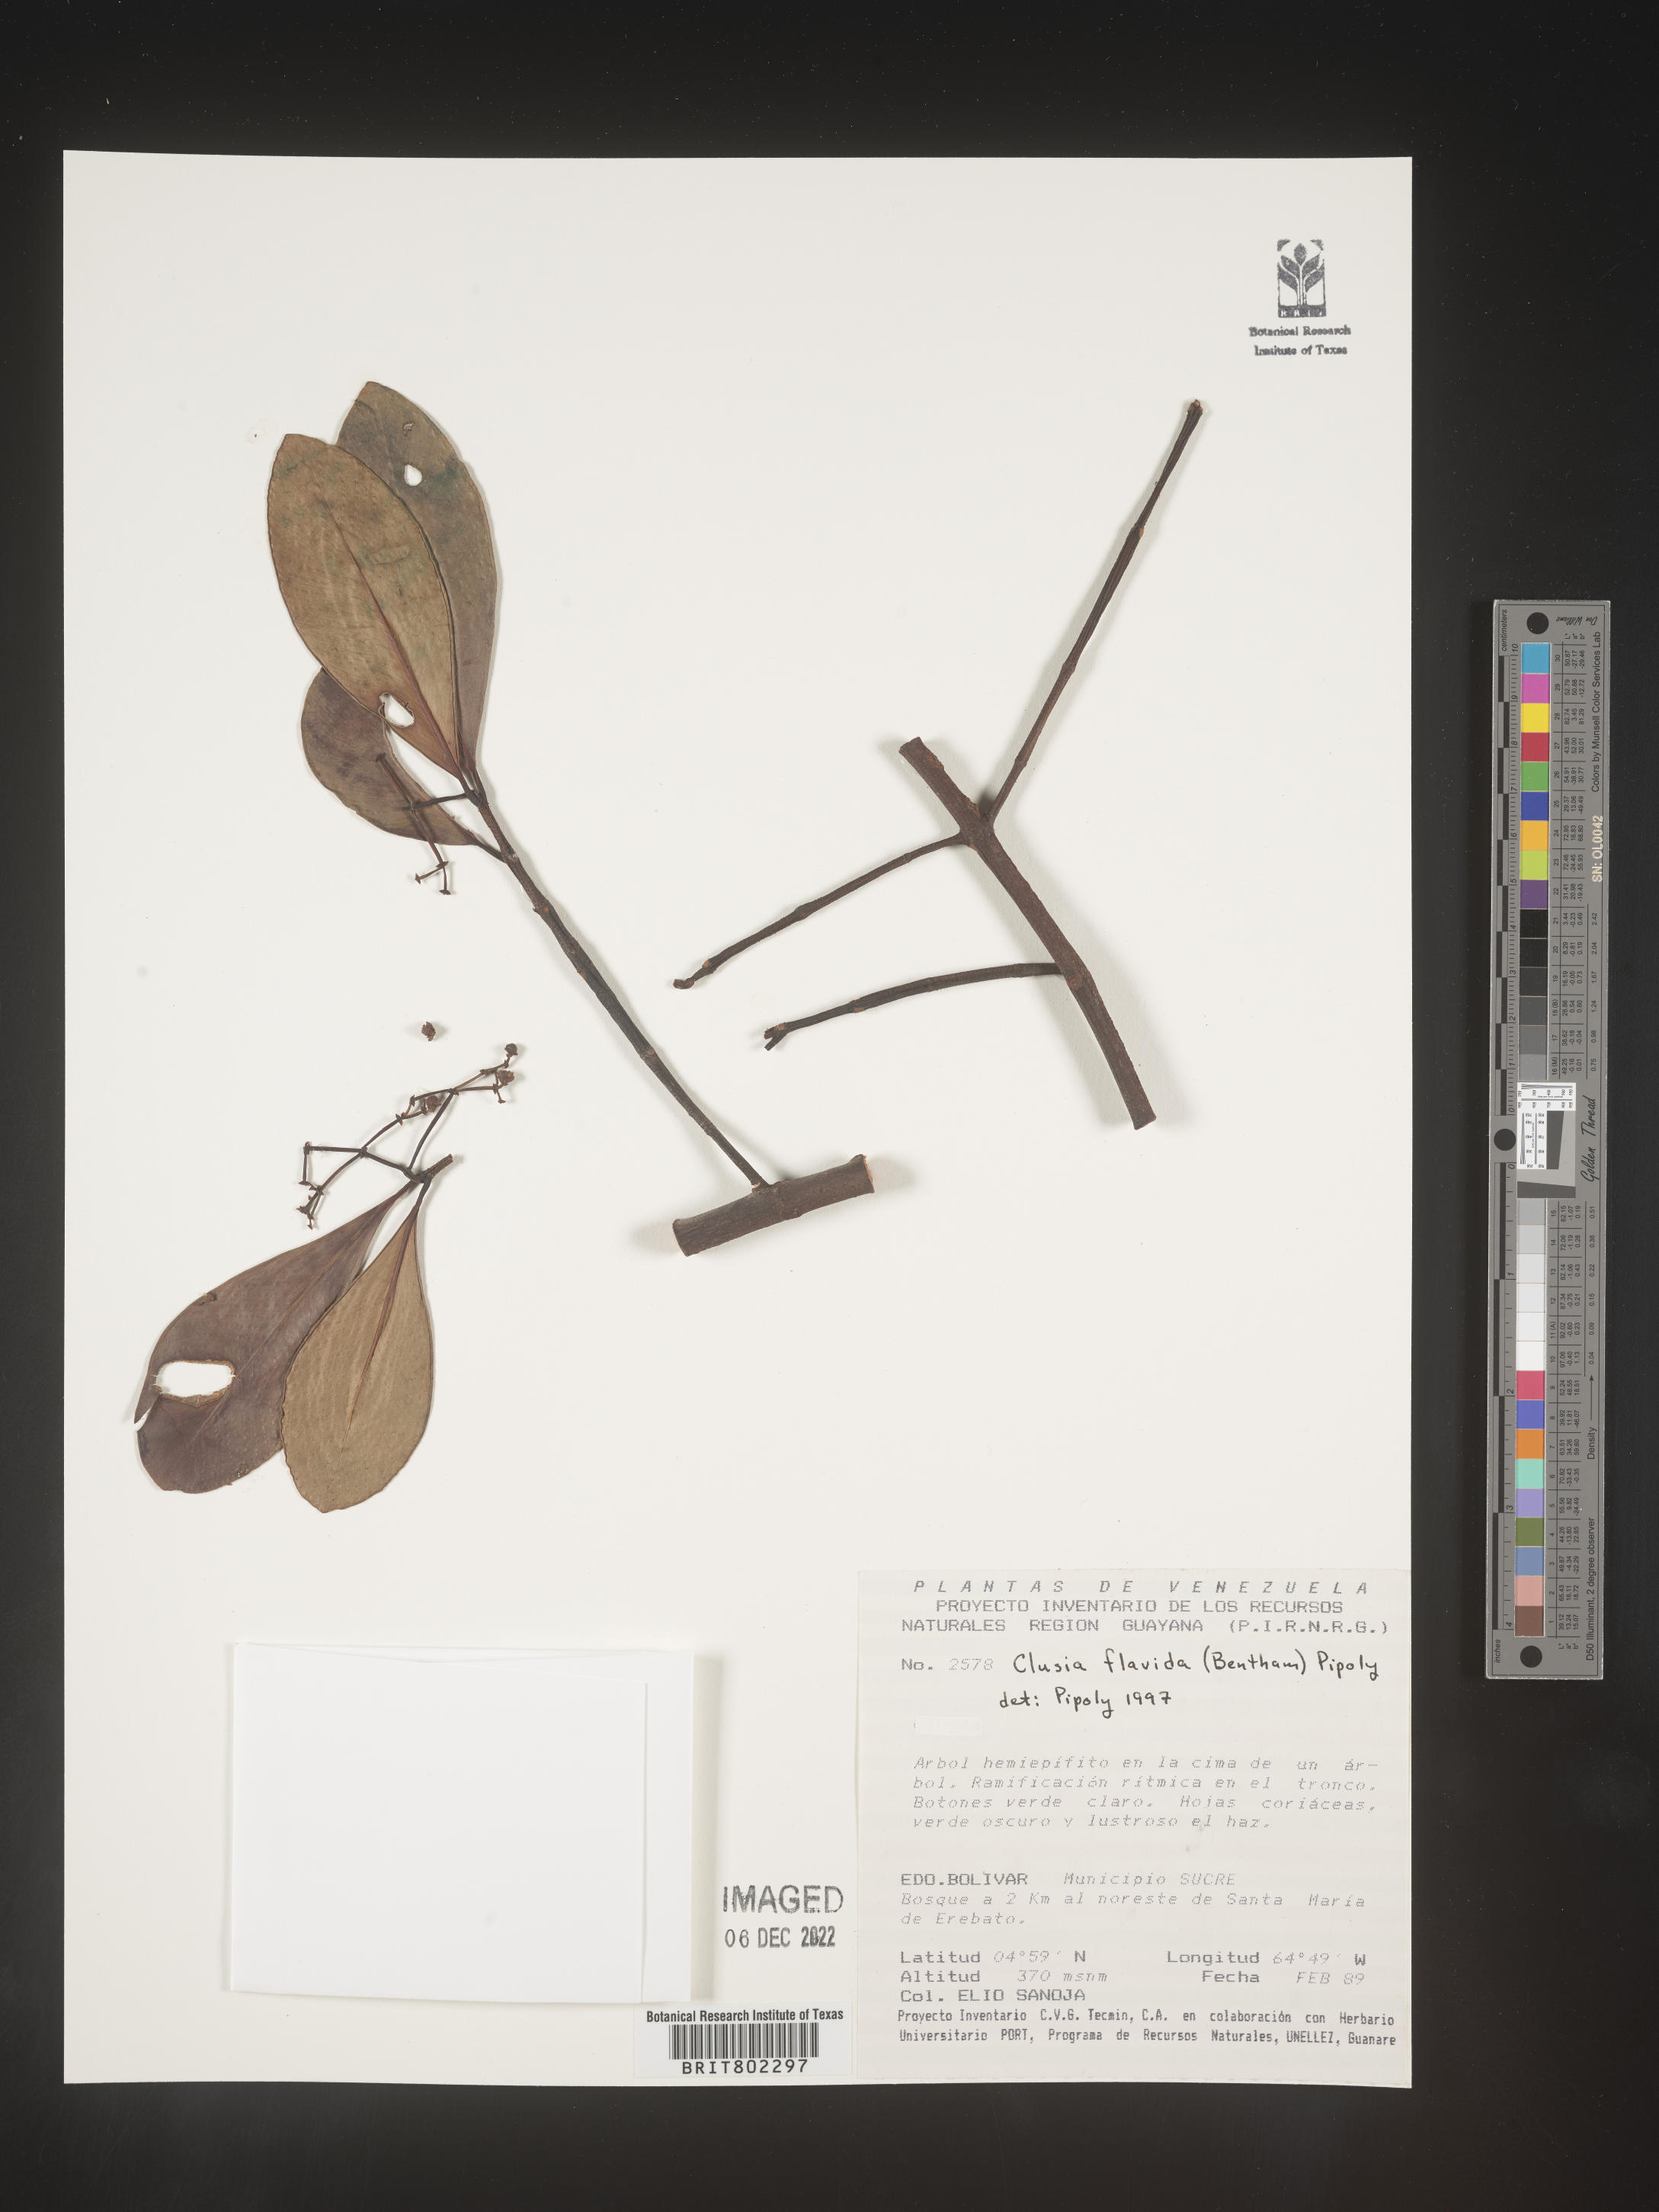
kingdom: Plantae
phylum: Tracheophyta
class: Magnoliopsida
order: Malpighiales
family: Clusiaceae
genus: Clusia
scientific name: Clusia flavida
